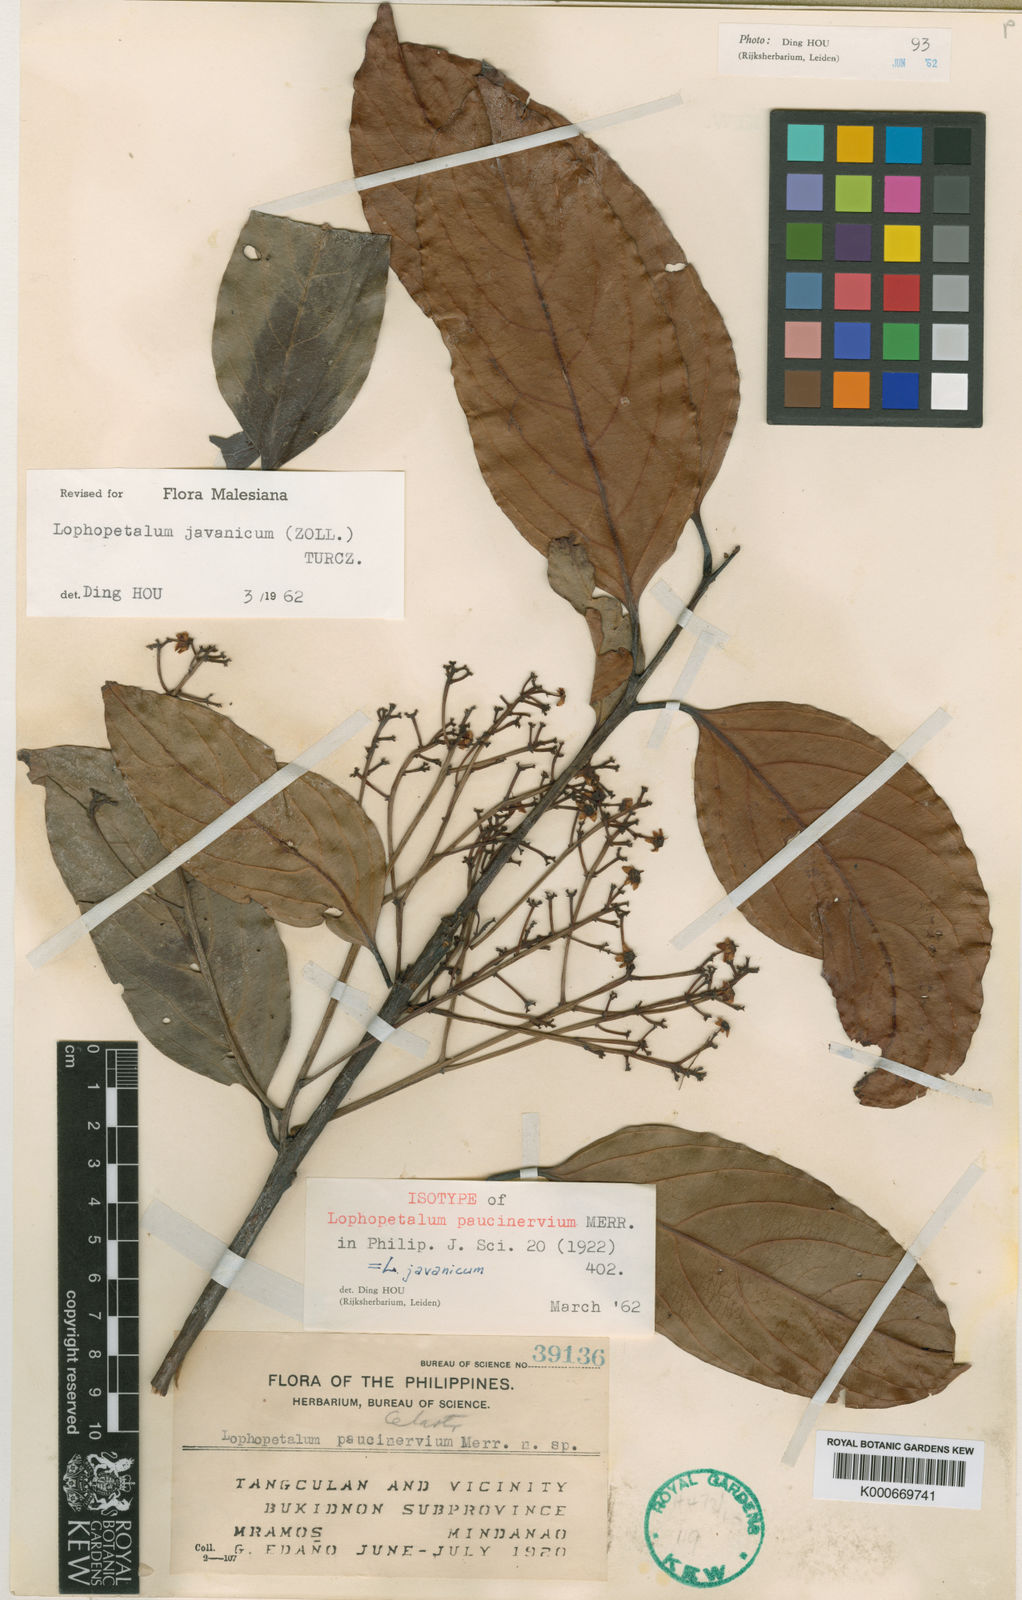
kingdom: Plantae
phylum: Tracheophyta
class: Magnoliopsida
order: Celastrales
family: Celastraceae
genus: Lophopetalum
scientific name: Lophopetalum
